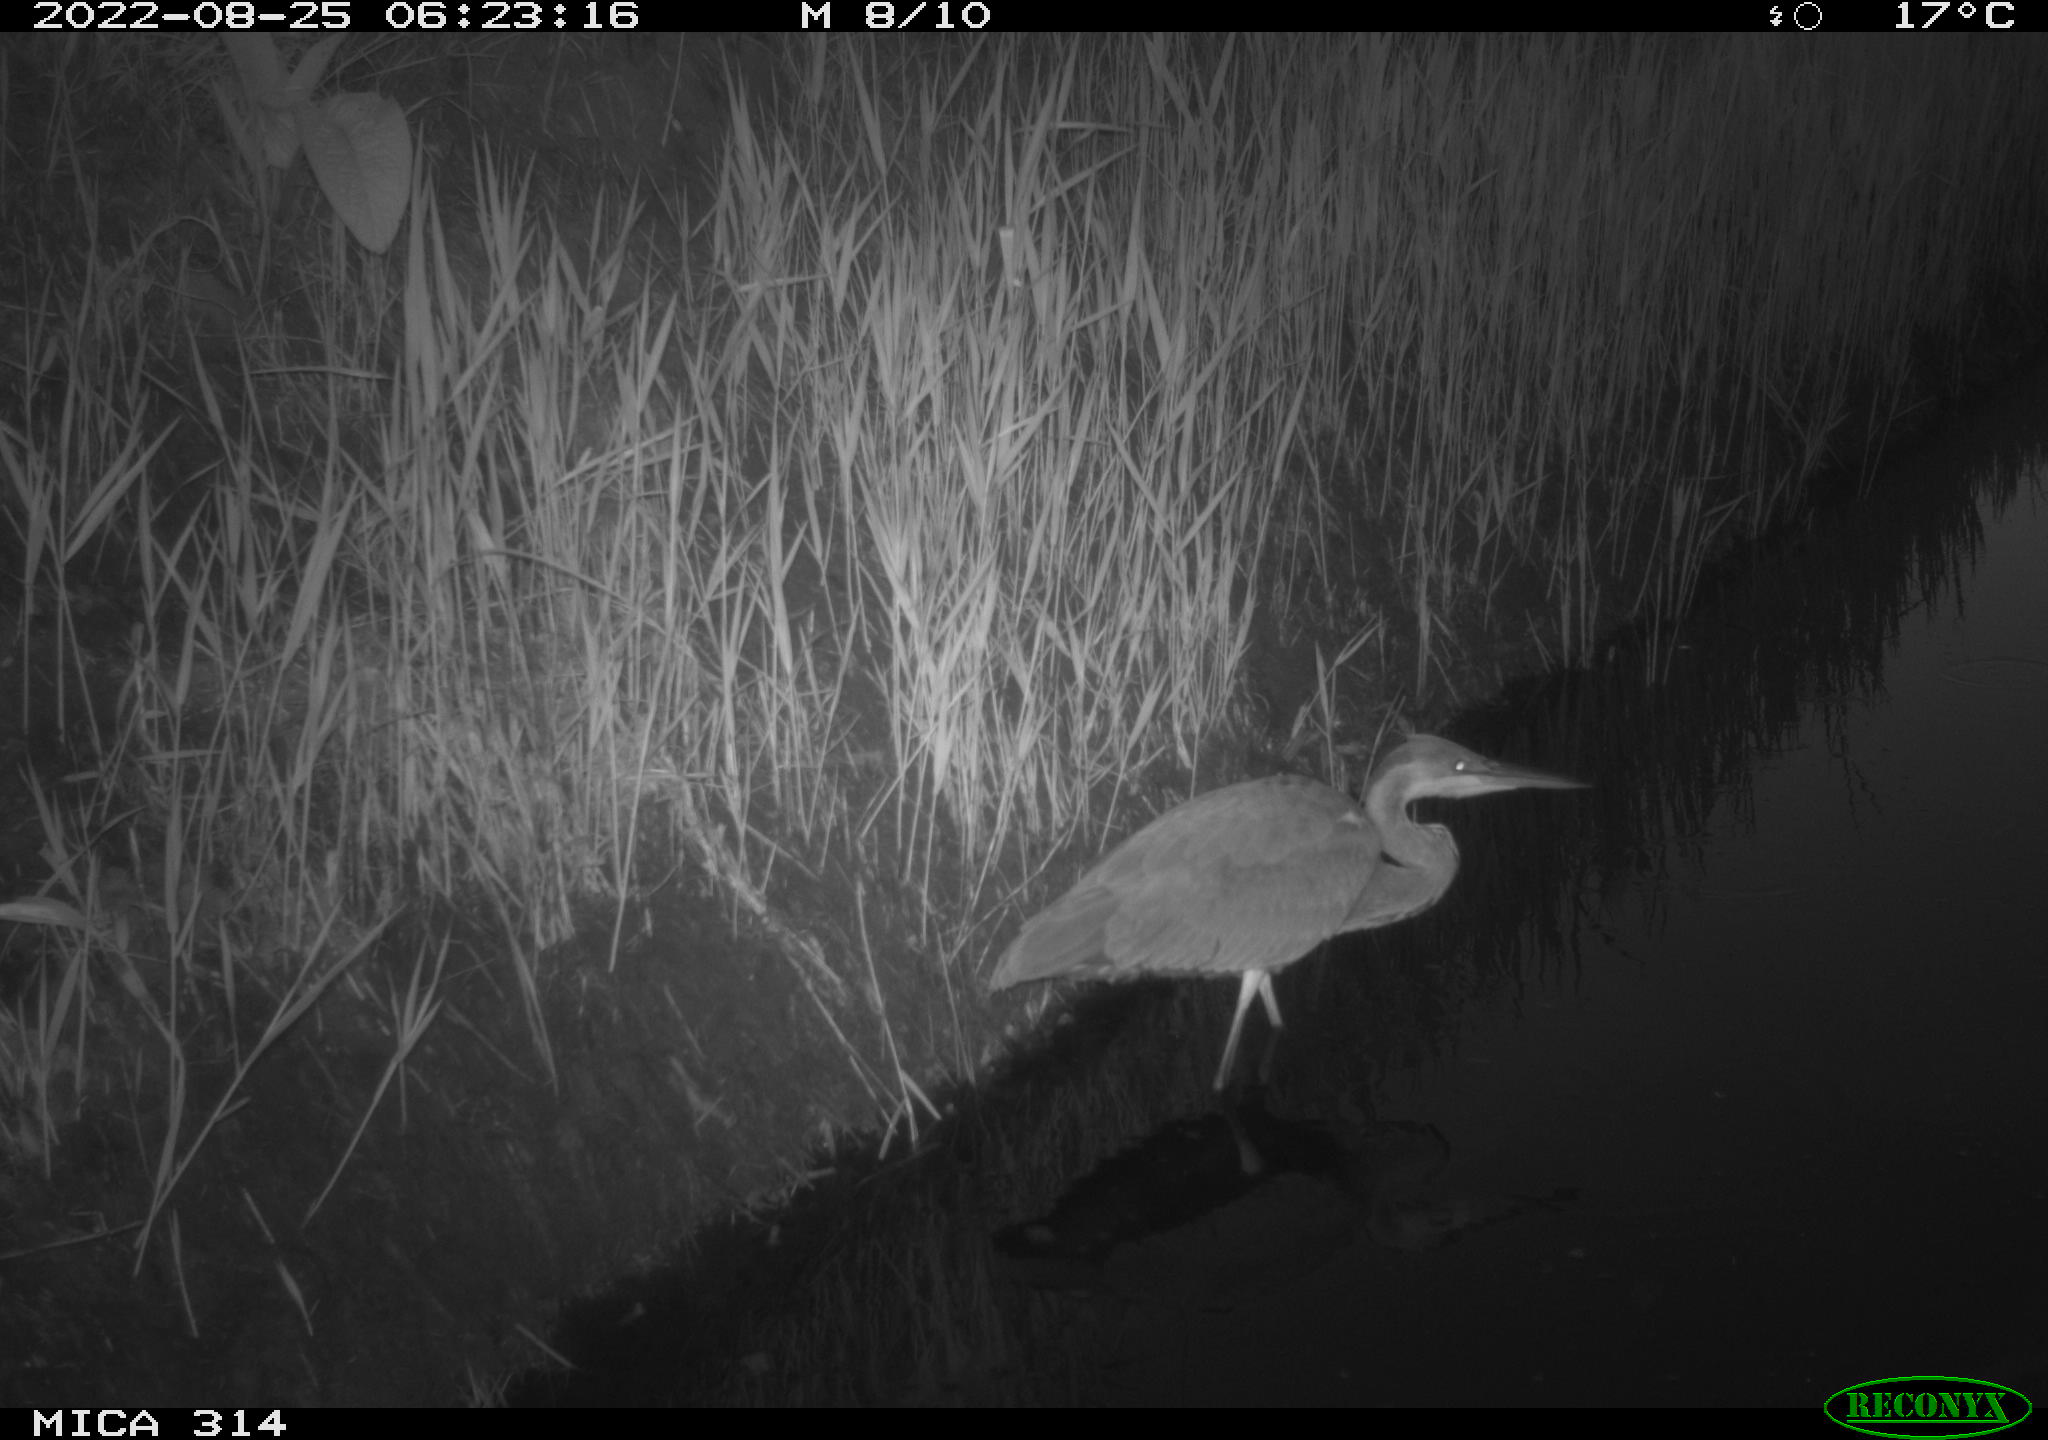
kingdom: Animalia
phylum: Chordata
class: Aves
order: Pelecaniformes
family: Ardeidae
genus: Ardea
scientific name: Ardea cinerea
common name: Grey heron
